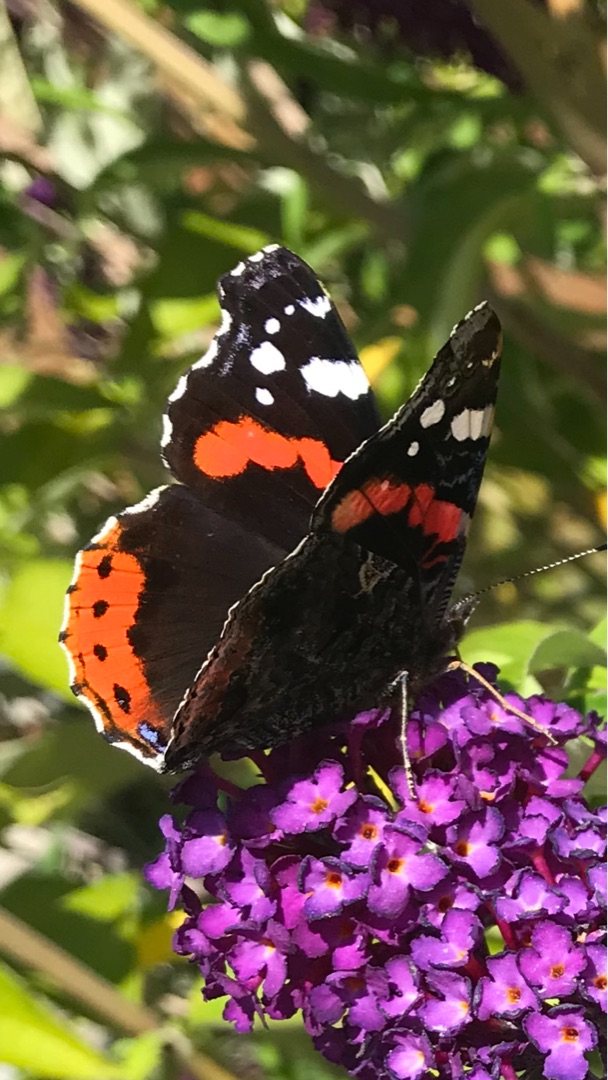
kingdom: Animalia
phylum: Arthropoda
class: Insecta
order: Lepidoptera
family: Nymphalidae
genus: Vanessa
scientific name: Vanessa atalanta
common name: Admiral
